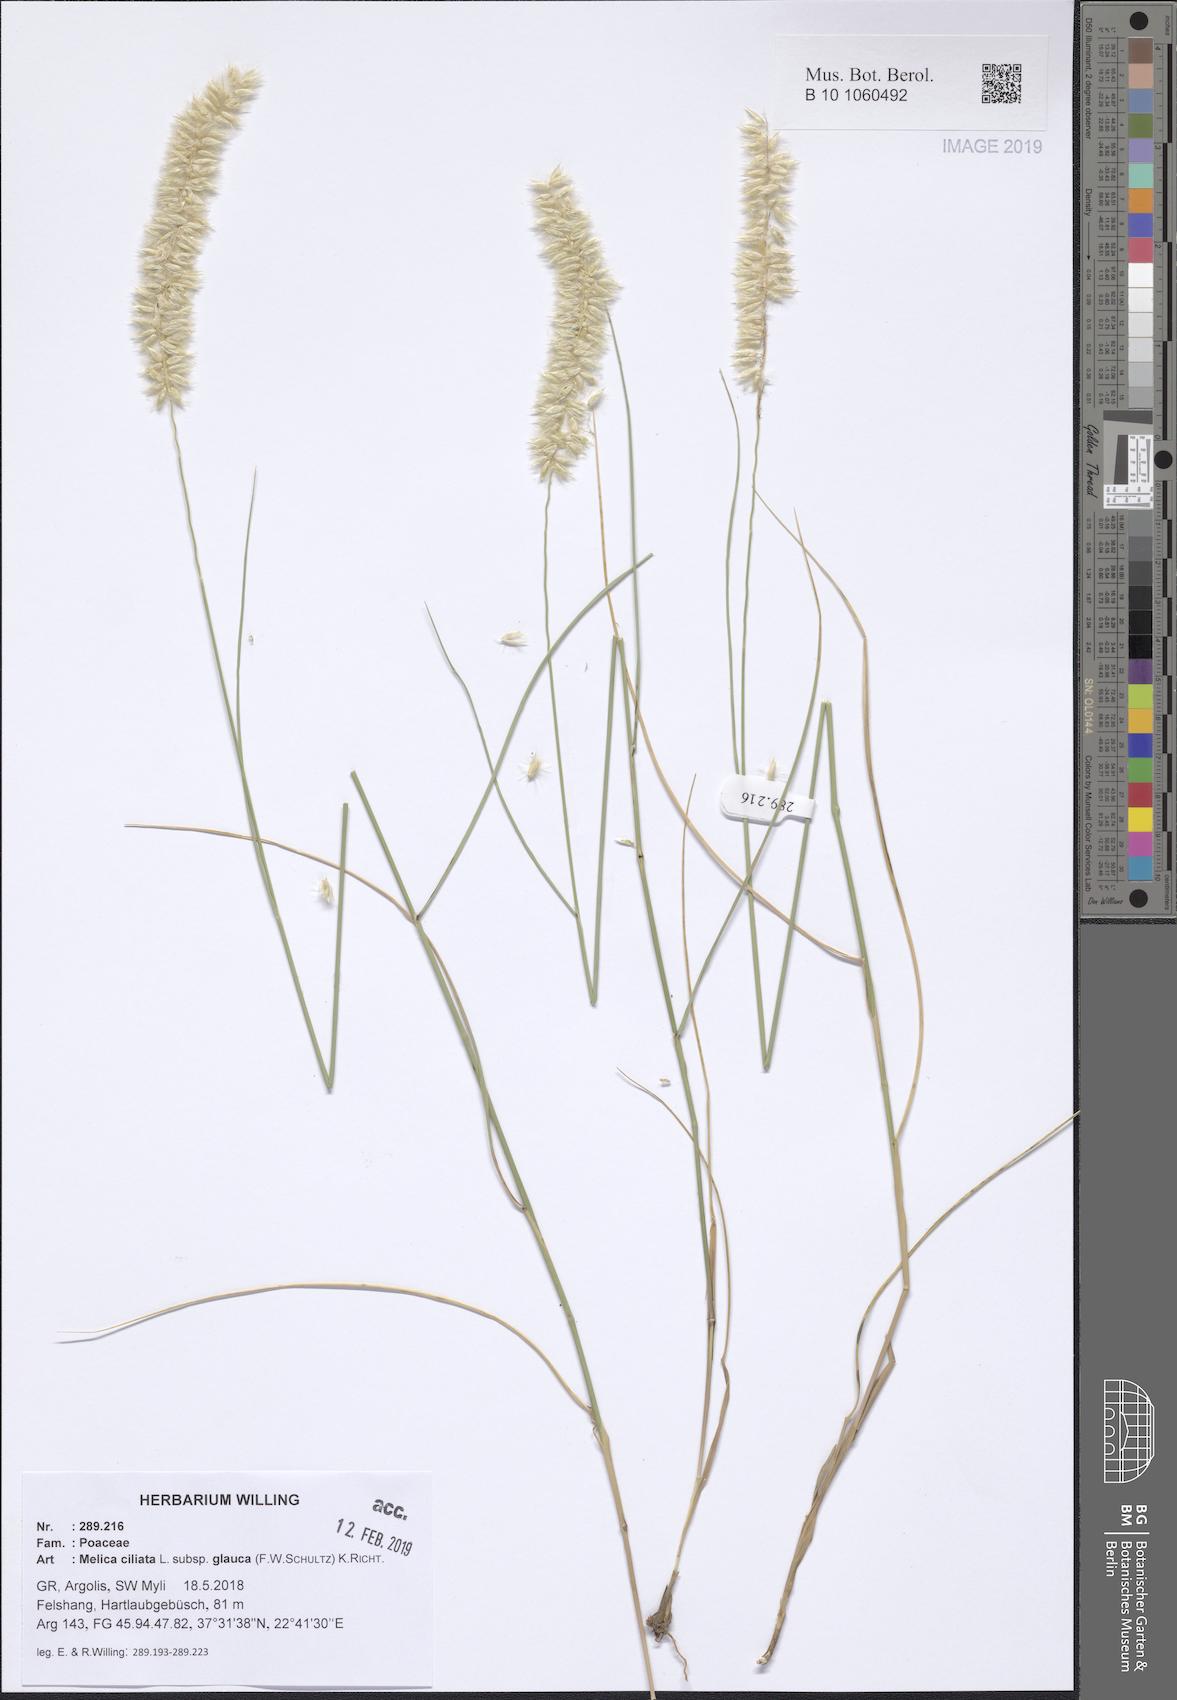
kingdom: Plantae
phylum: Tracheophyta
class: Liliopsida
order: Poales
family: Poaceae
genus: Melica
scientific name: Melica ciliata
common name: Hairy melicgrass
